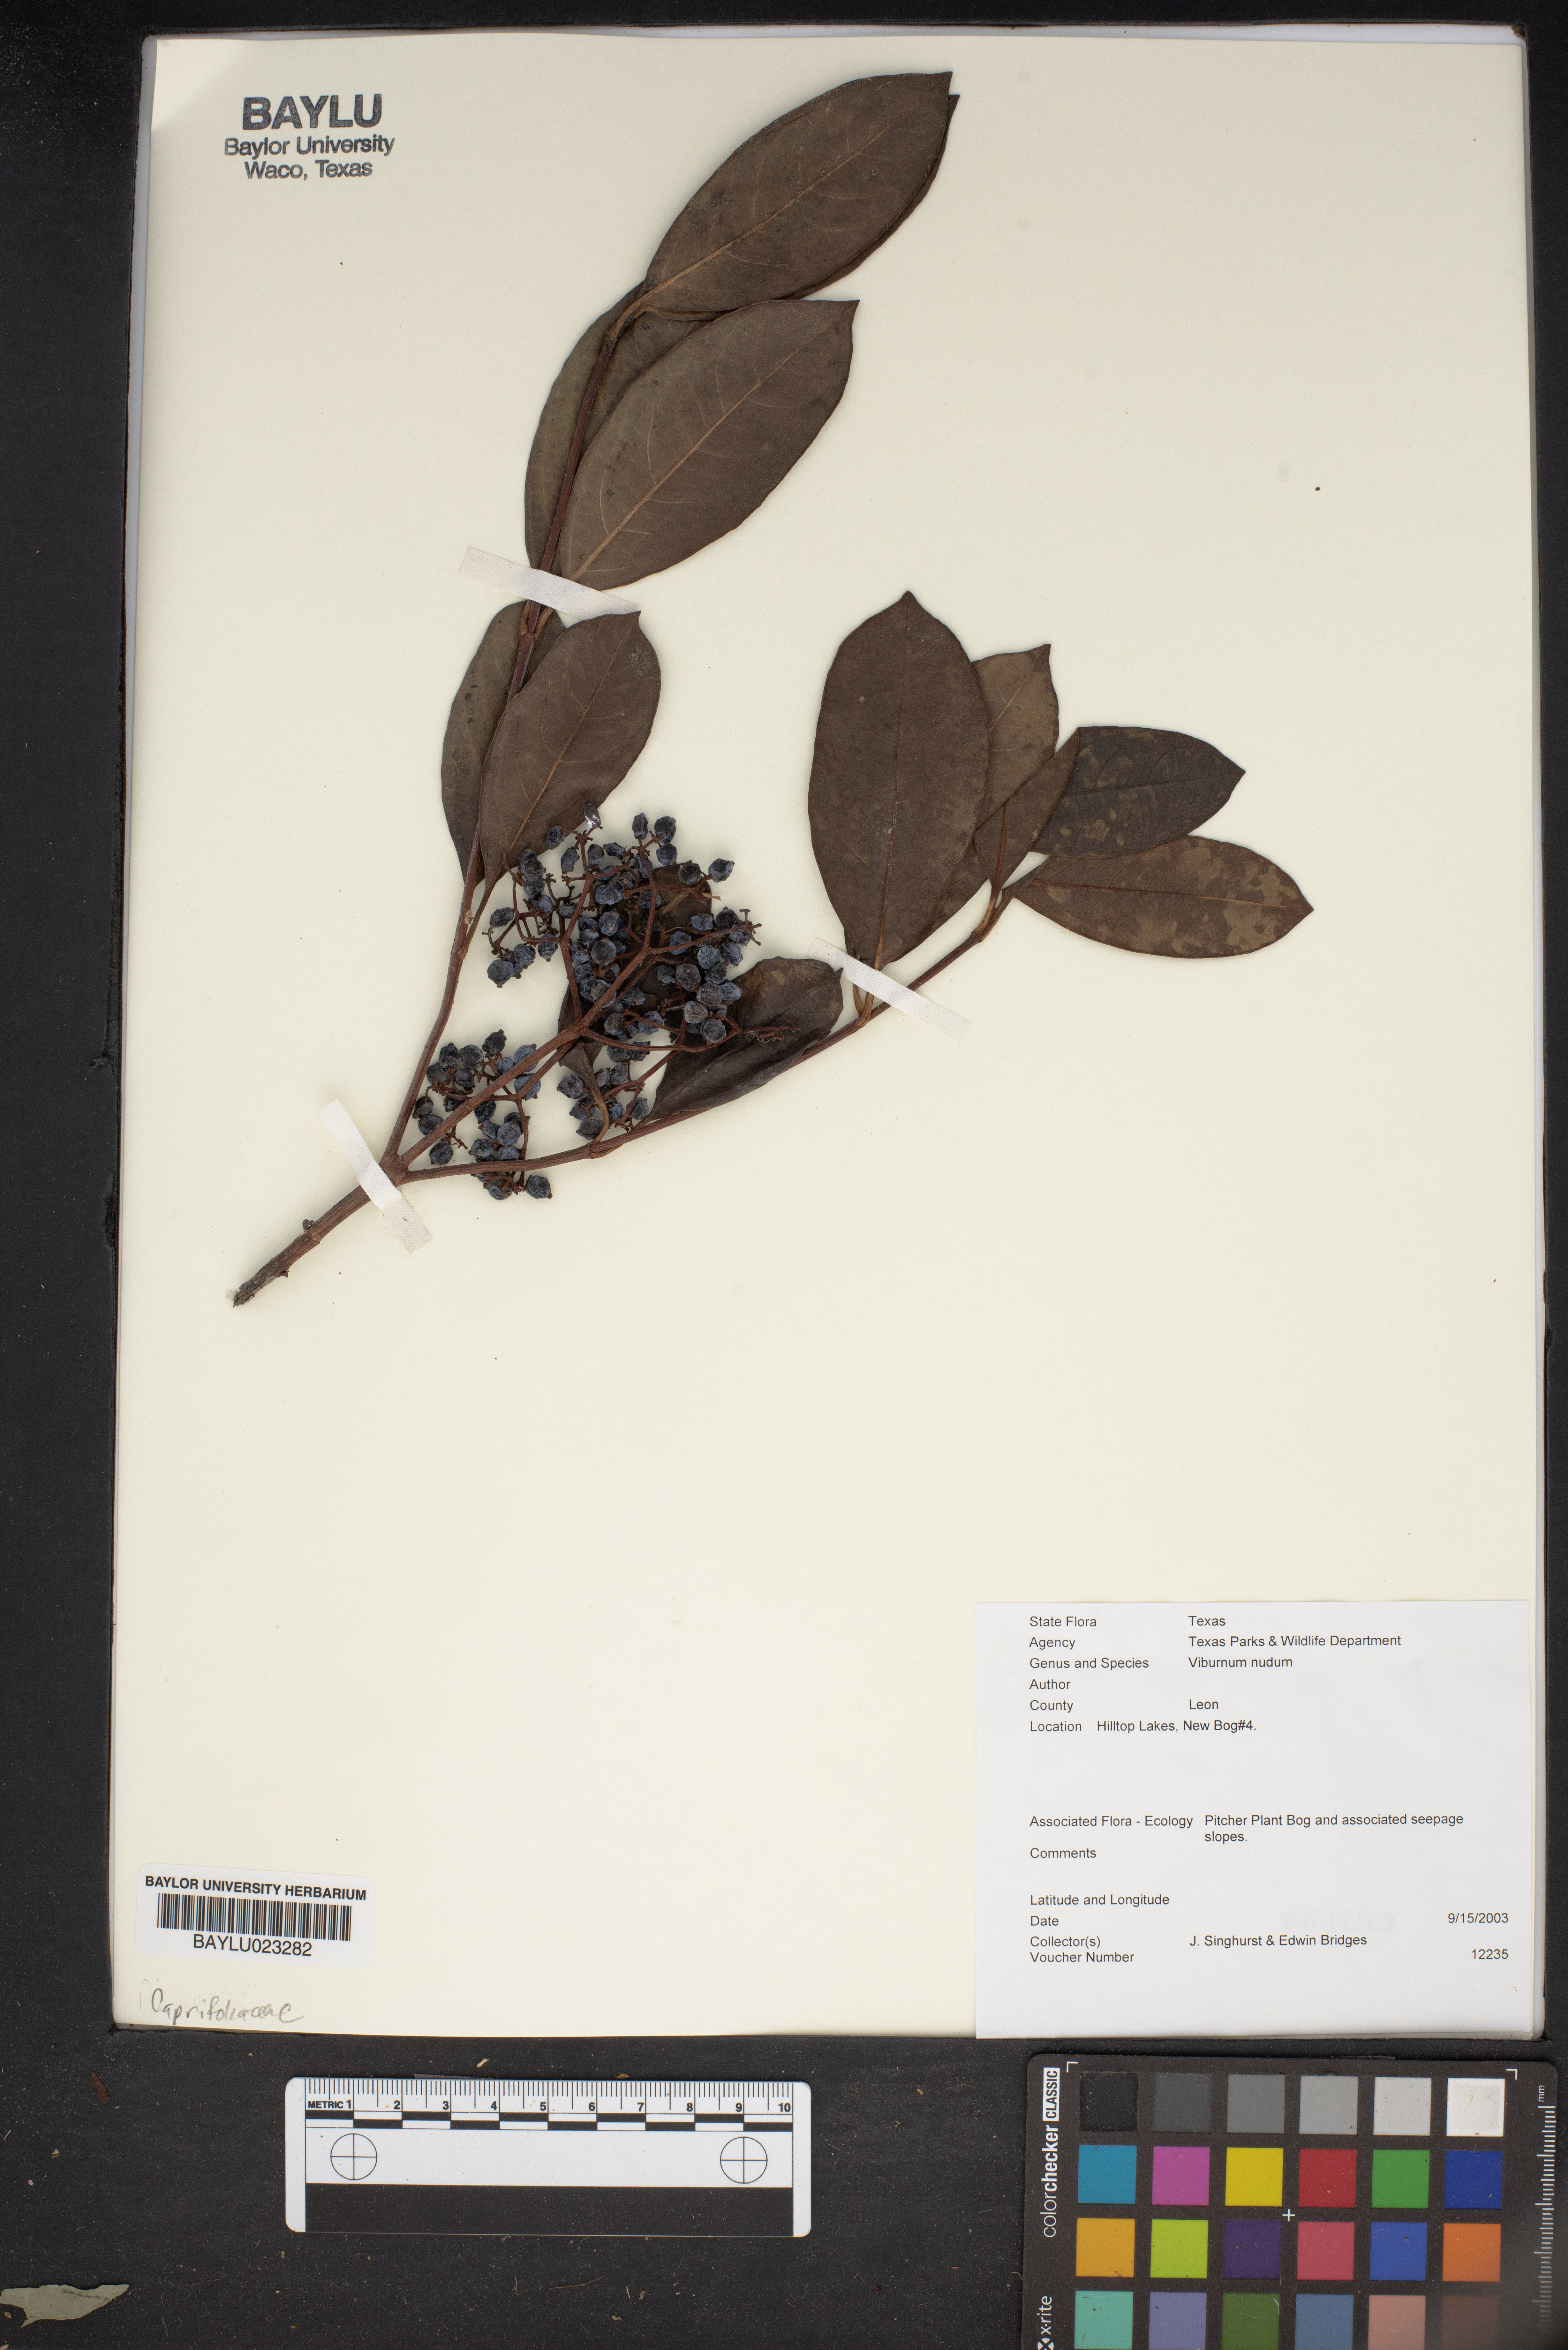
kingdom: Plantae
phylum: Tracheophyta
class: Magnoliopsida
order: Dipsacales
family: Viburnaceae
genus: Viburnum
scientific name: Viburnum nudum
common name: Possum haw
